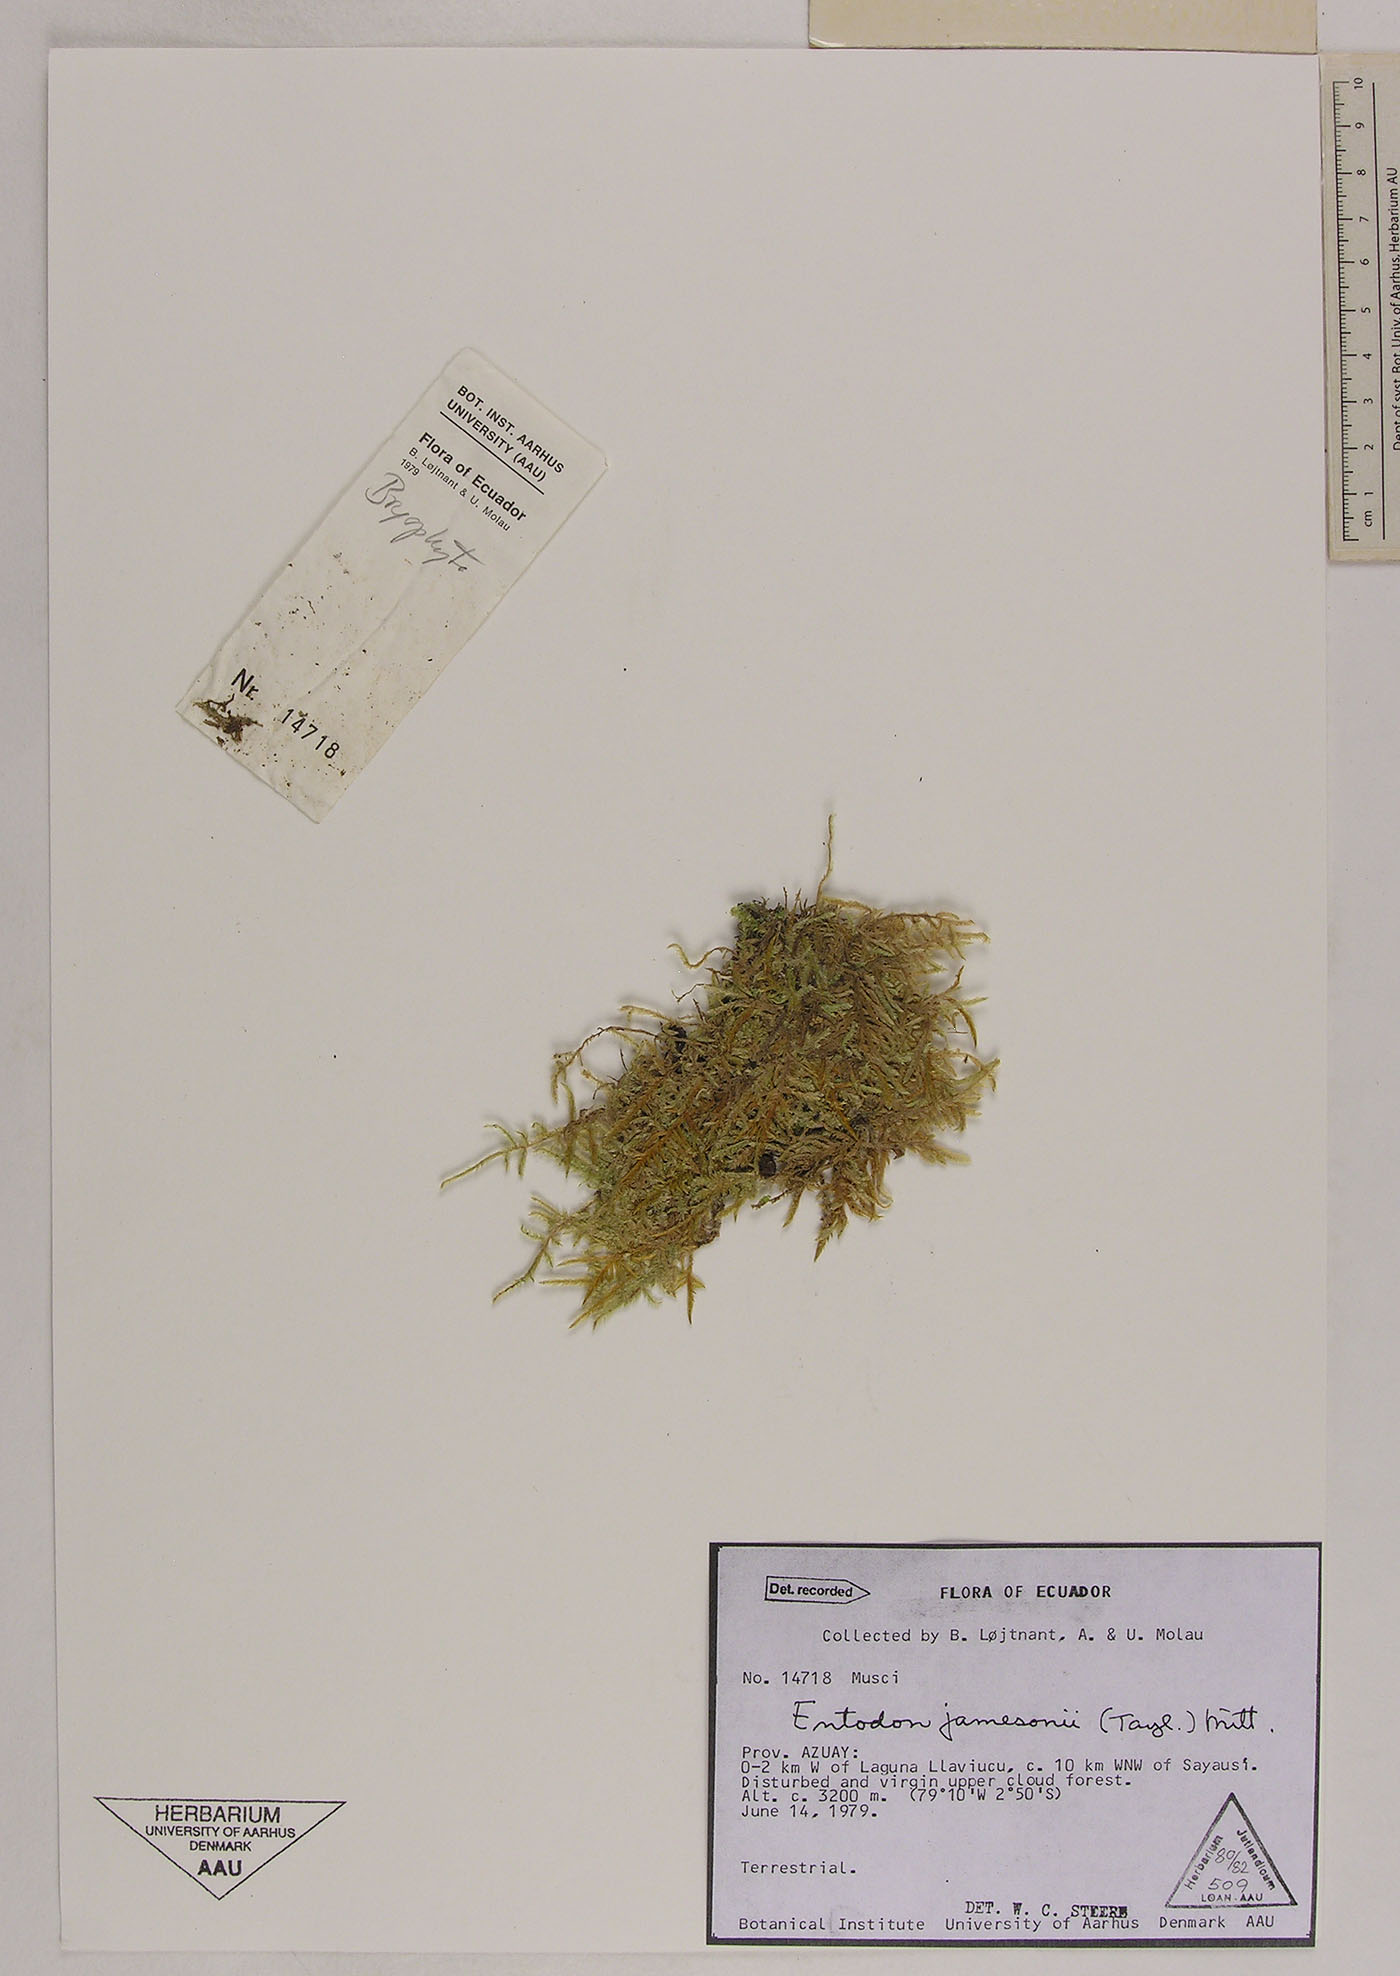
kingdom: Plantae
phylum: Bryophyta
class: Bryopsida
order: Hypnales
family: Entodontaceae
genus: Entodon
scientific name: Entodon jamesonii
